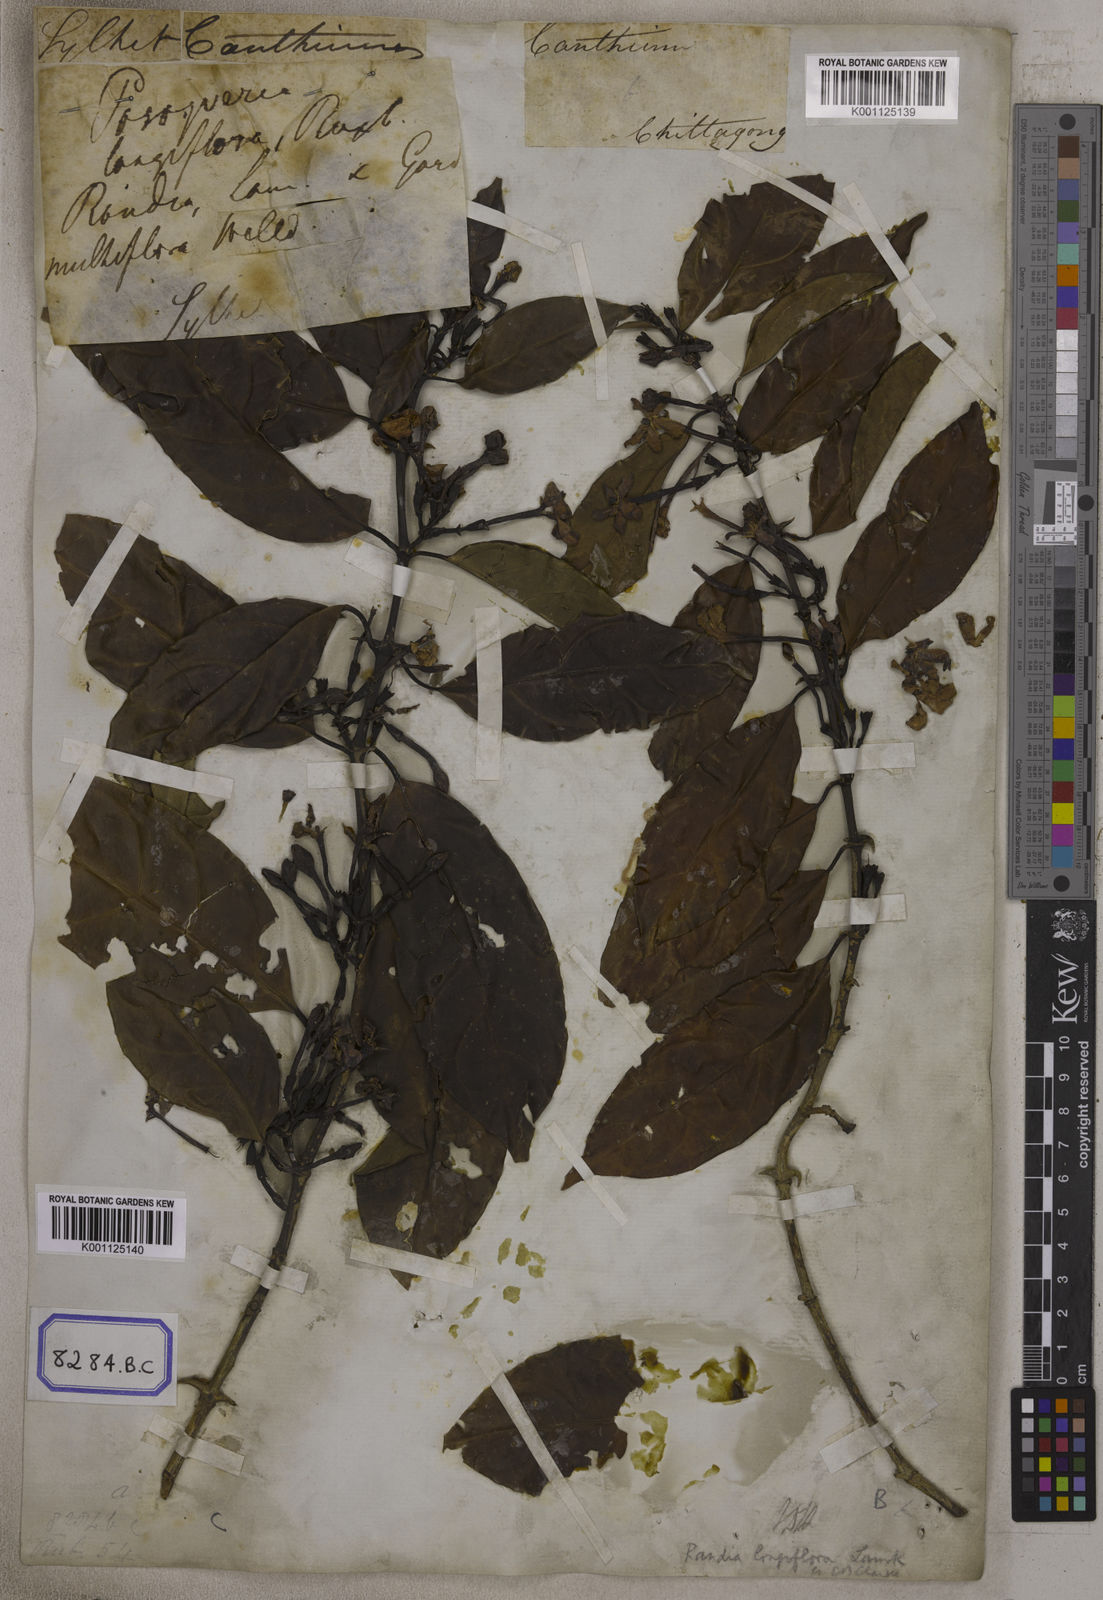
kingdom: Plantae
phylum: Tracheophyta
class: Magnoliopsida
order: Gentianales
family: Rubiaceae
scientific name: Rubiaceae
